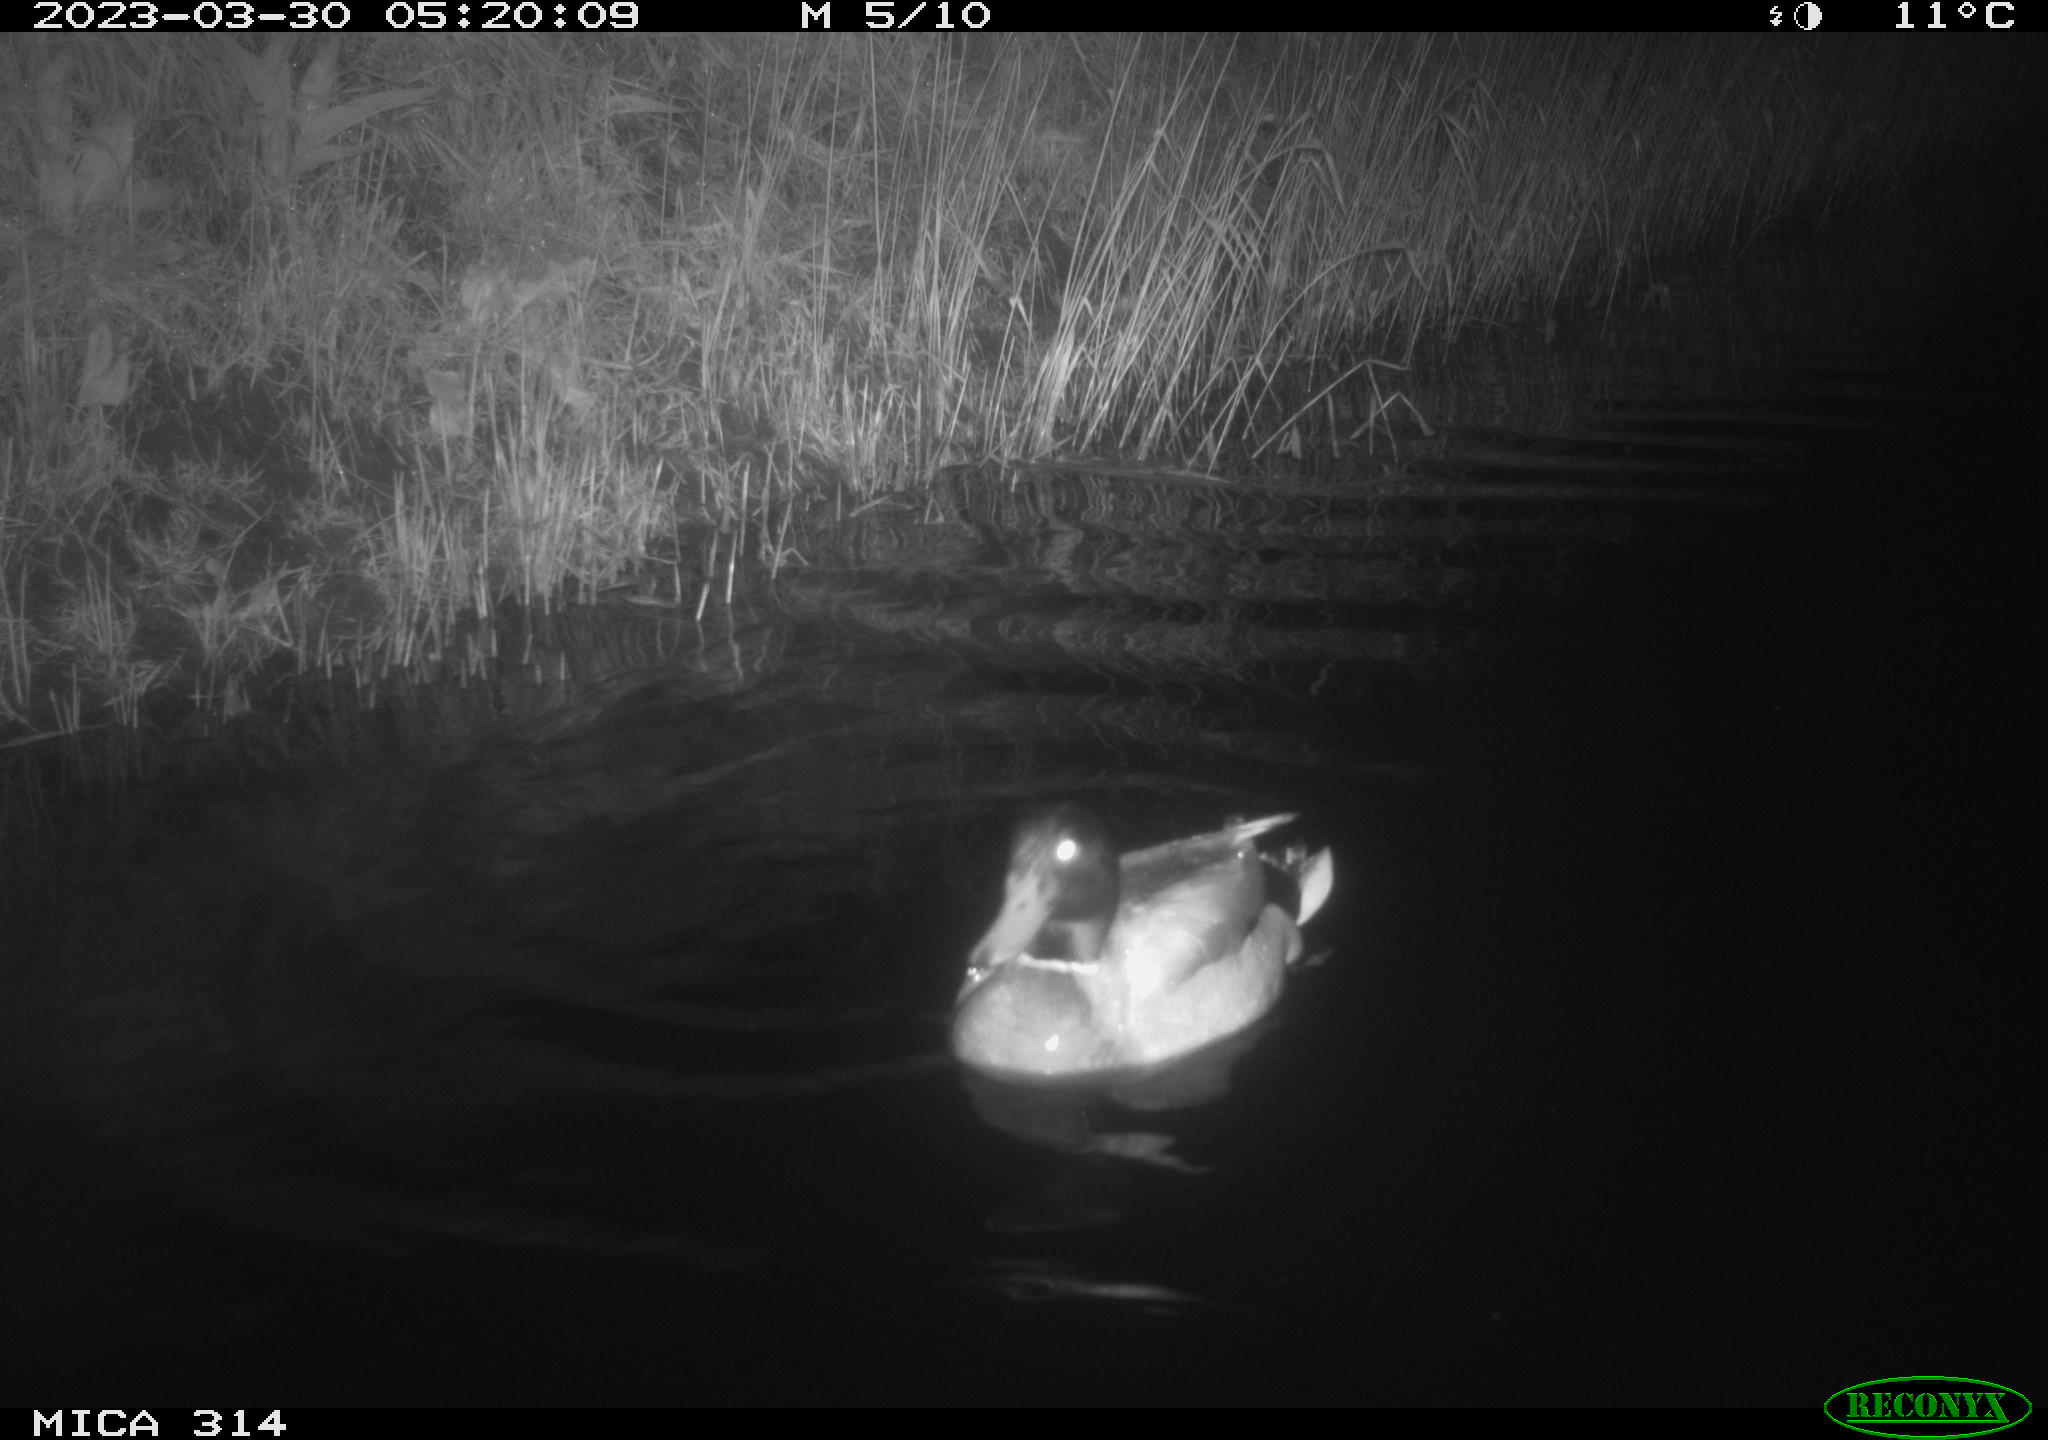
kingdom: Animalia
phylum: Chordata
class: Aves
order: Anseriformes
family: Anatidae
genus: Anas
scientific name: Anas
